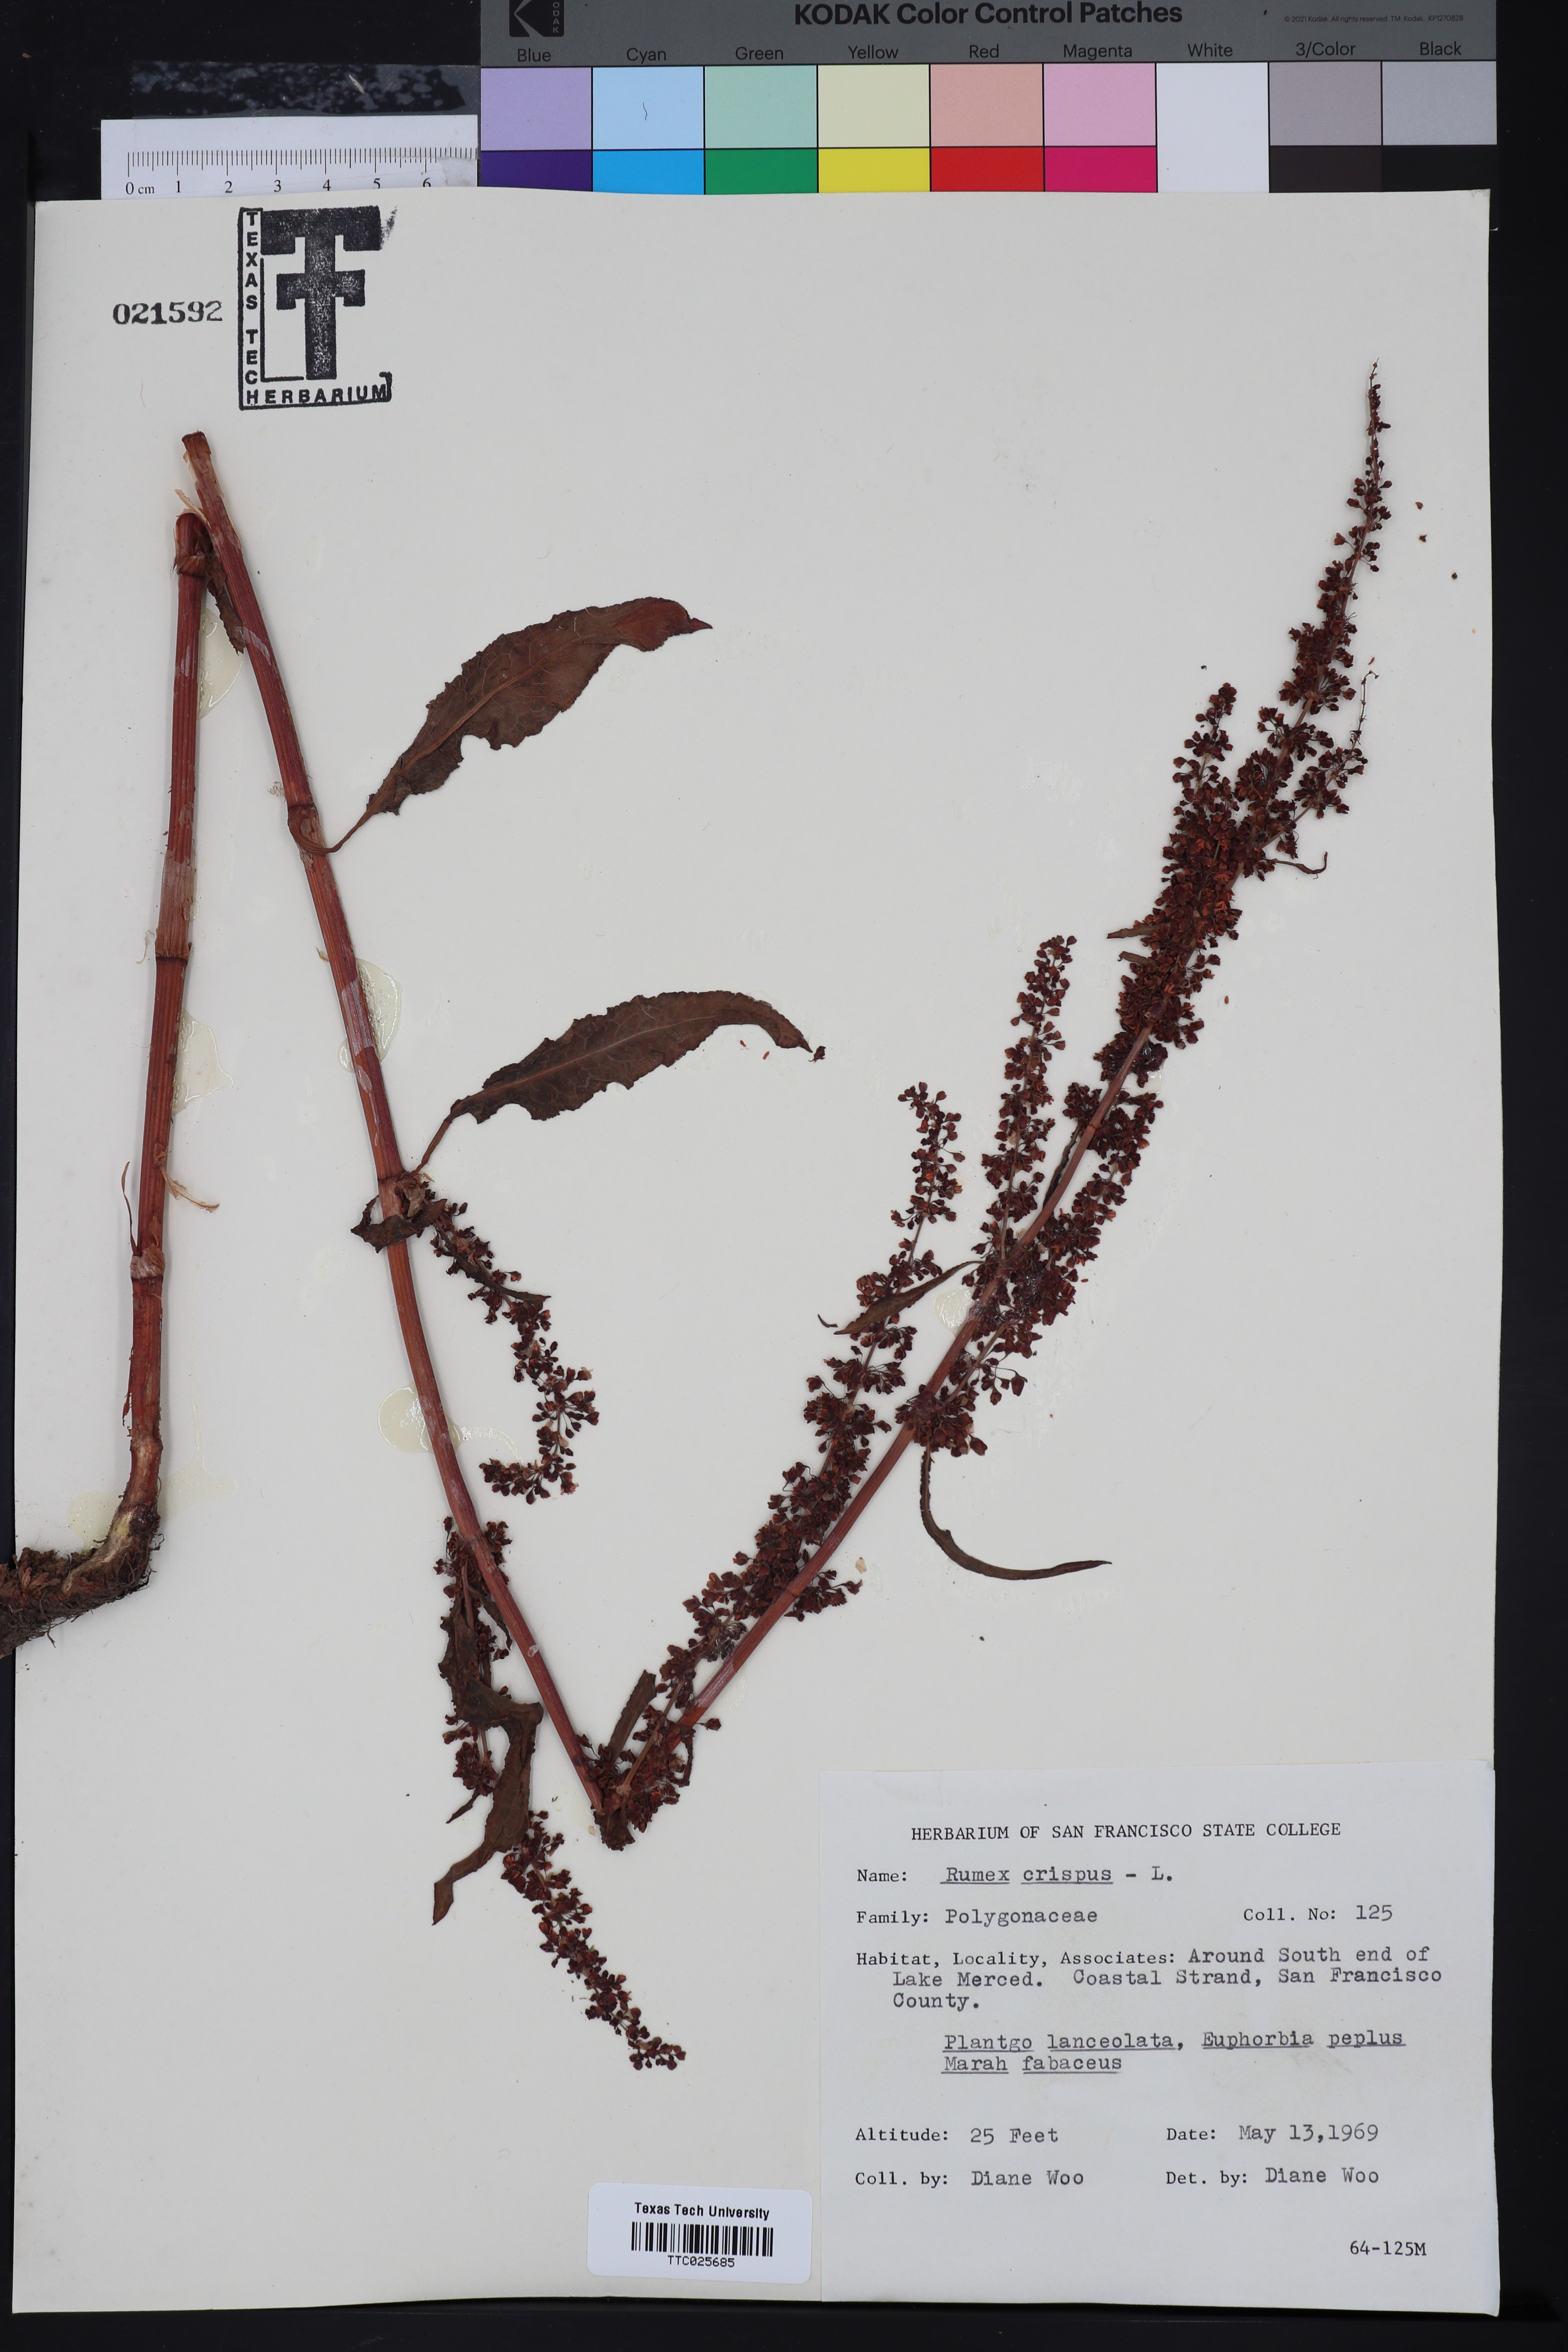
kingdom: Plantae
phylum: Tracheophyta
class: Magnoliopsida
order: Caryophyllales
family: Polygonaceae
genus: Rumex
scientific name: Rumex crispus
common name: Curled dock
